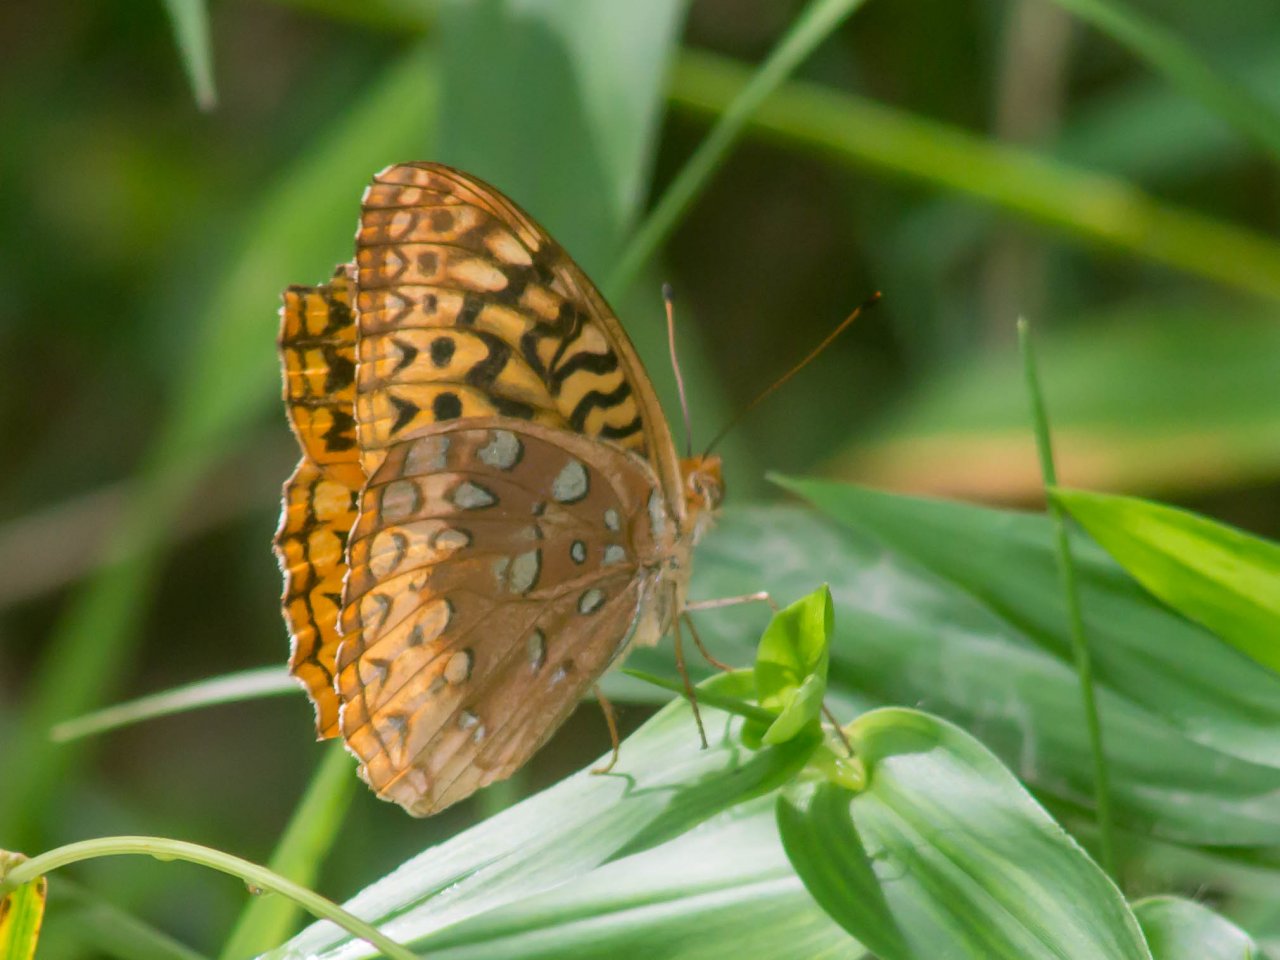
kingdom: Animalia
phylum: Arthropoda
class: Insecta
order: Lepidoptera
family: Nymphalidae
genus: Speyeria
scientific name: Speyeria cybele
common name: Great Spangled Fritillary
